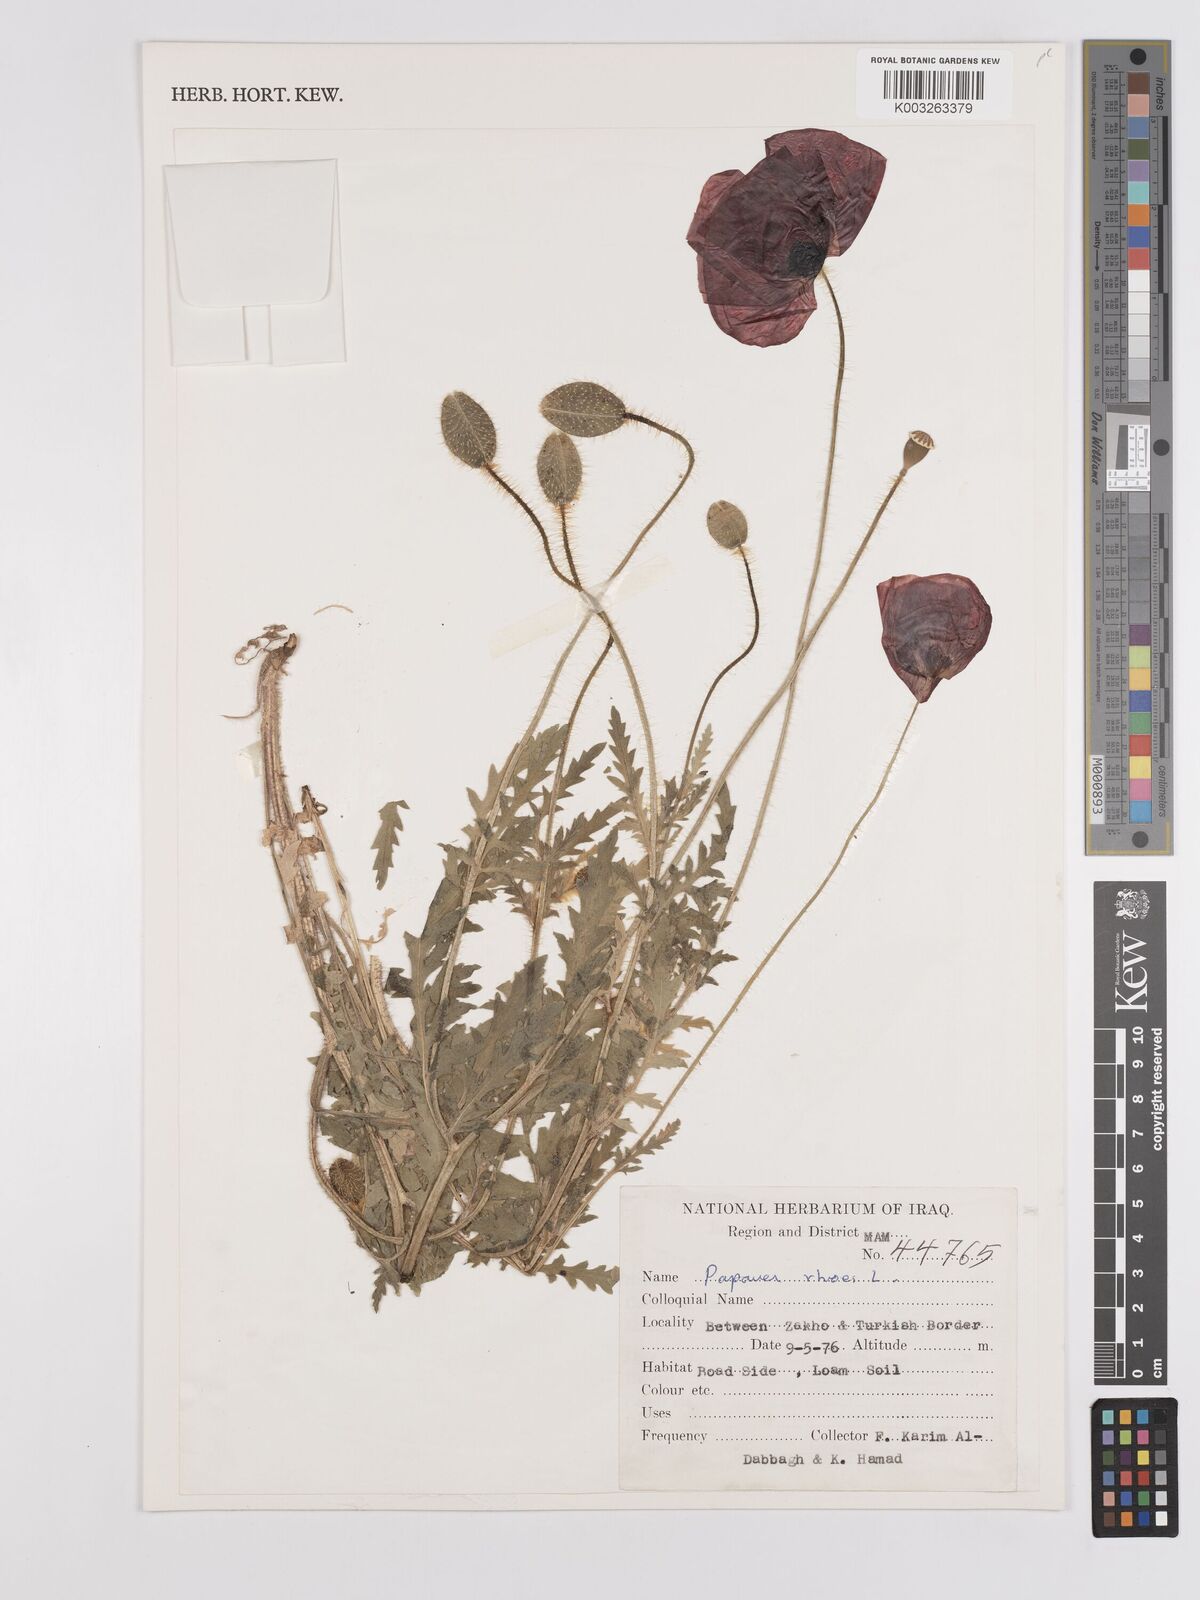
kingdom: Plantae
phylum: Tracheophyta
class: Magnoliopsida
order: Ranunculales
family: Papaveraceae
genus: Papaver
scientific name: Papaver rhoeas
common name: Corn poppy
